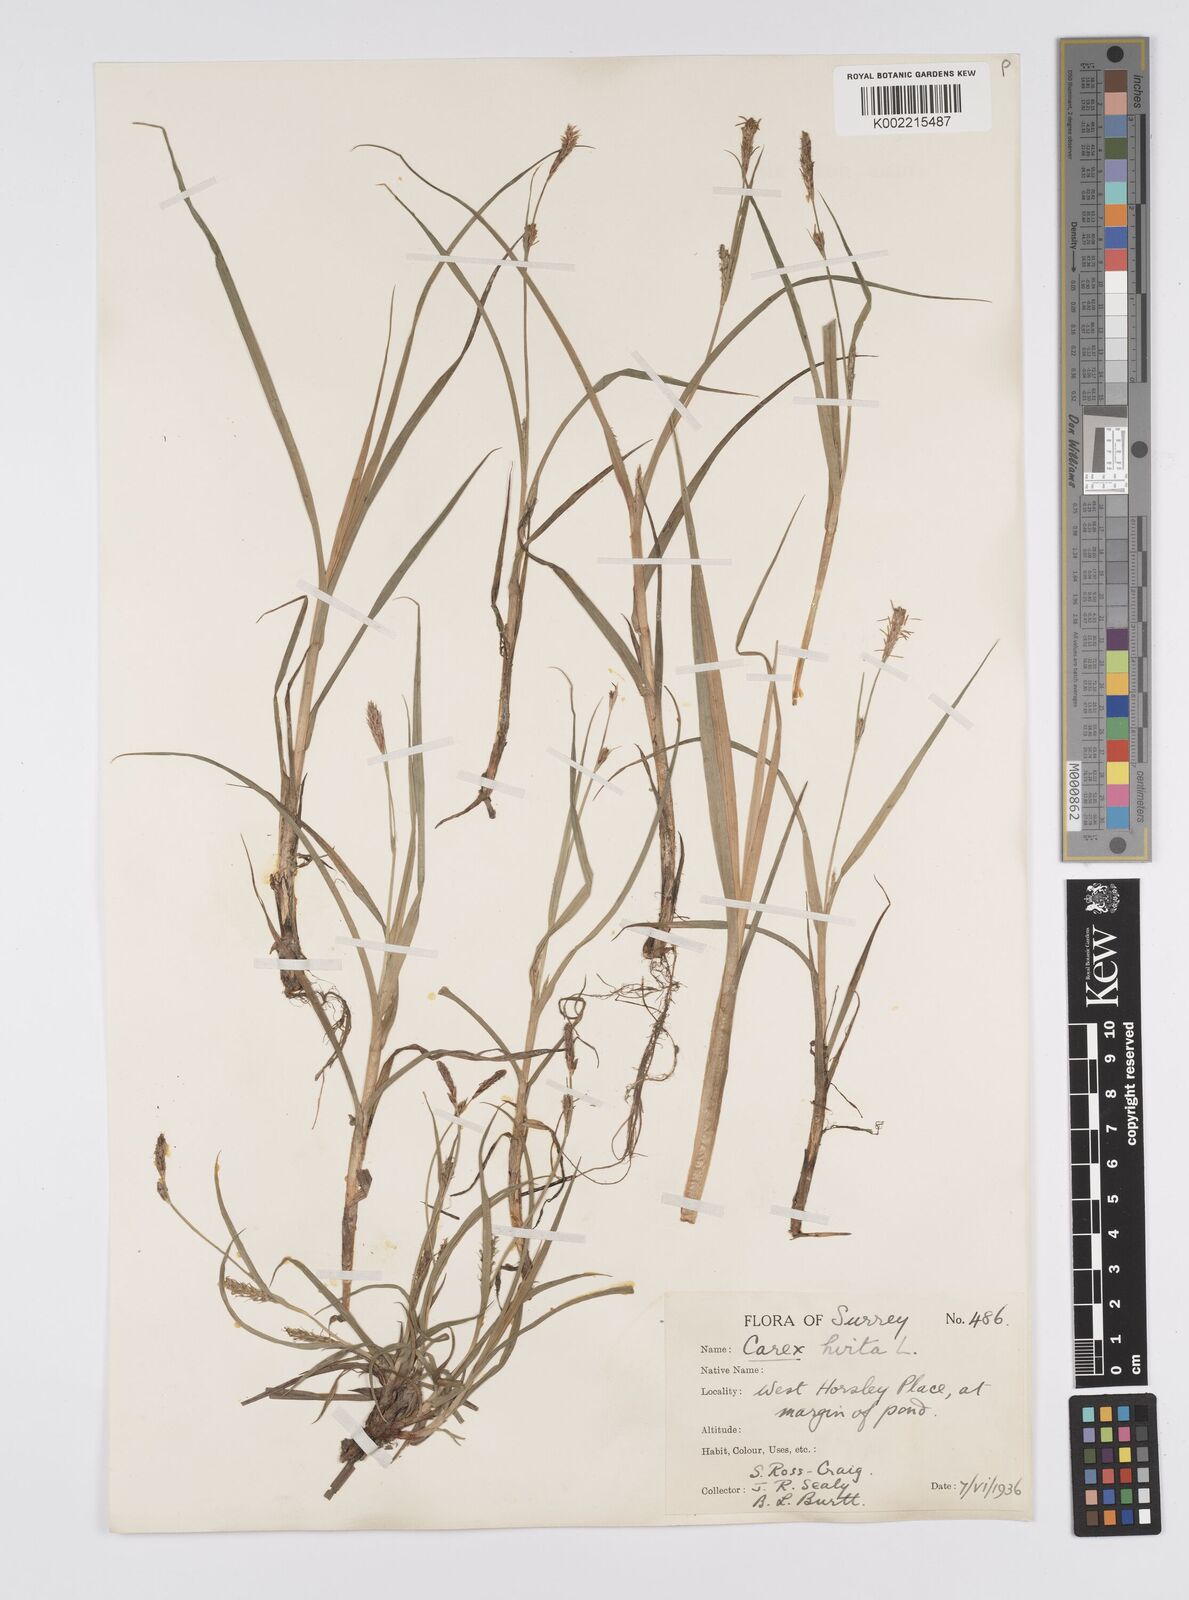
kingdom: Plantae
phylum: Tracheophyta
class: Liliopsida
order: Poales
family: Cyperaceae
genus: Carex
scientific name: Carex hirta
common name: Hairy sedge
